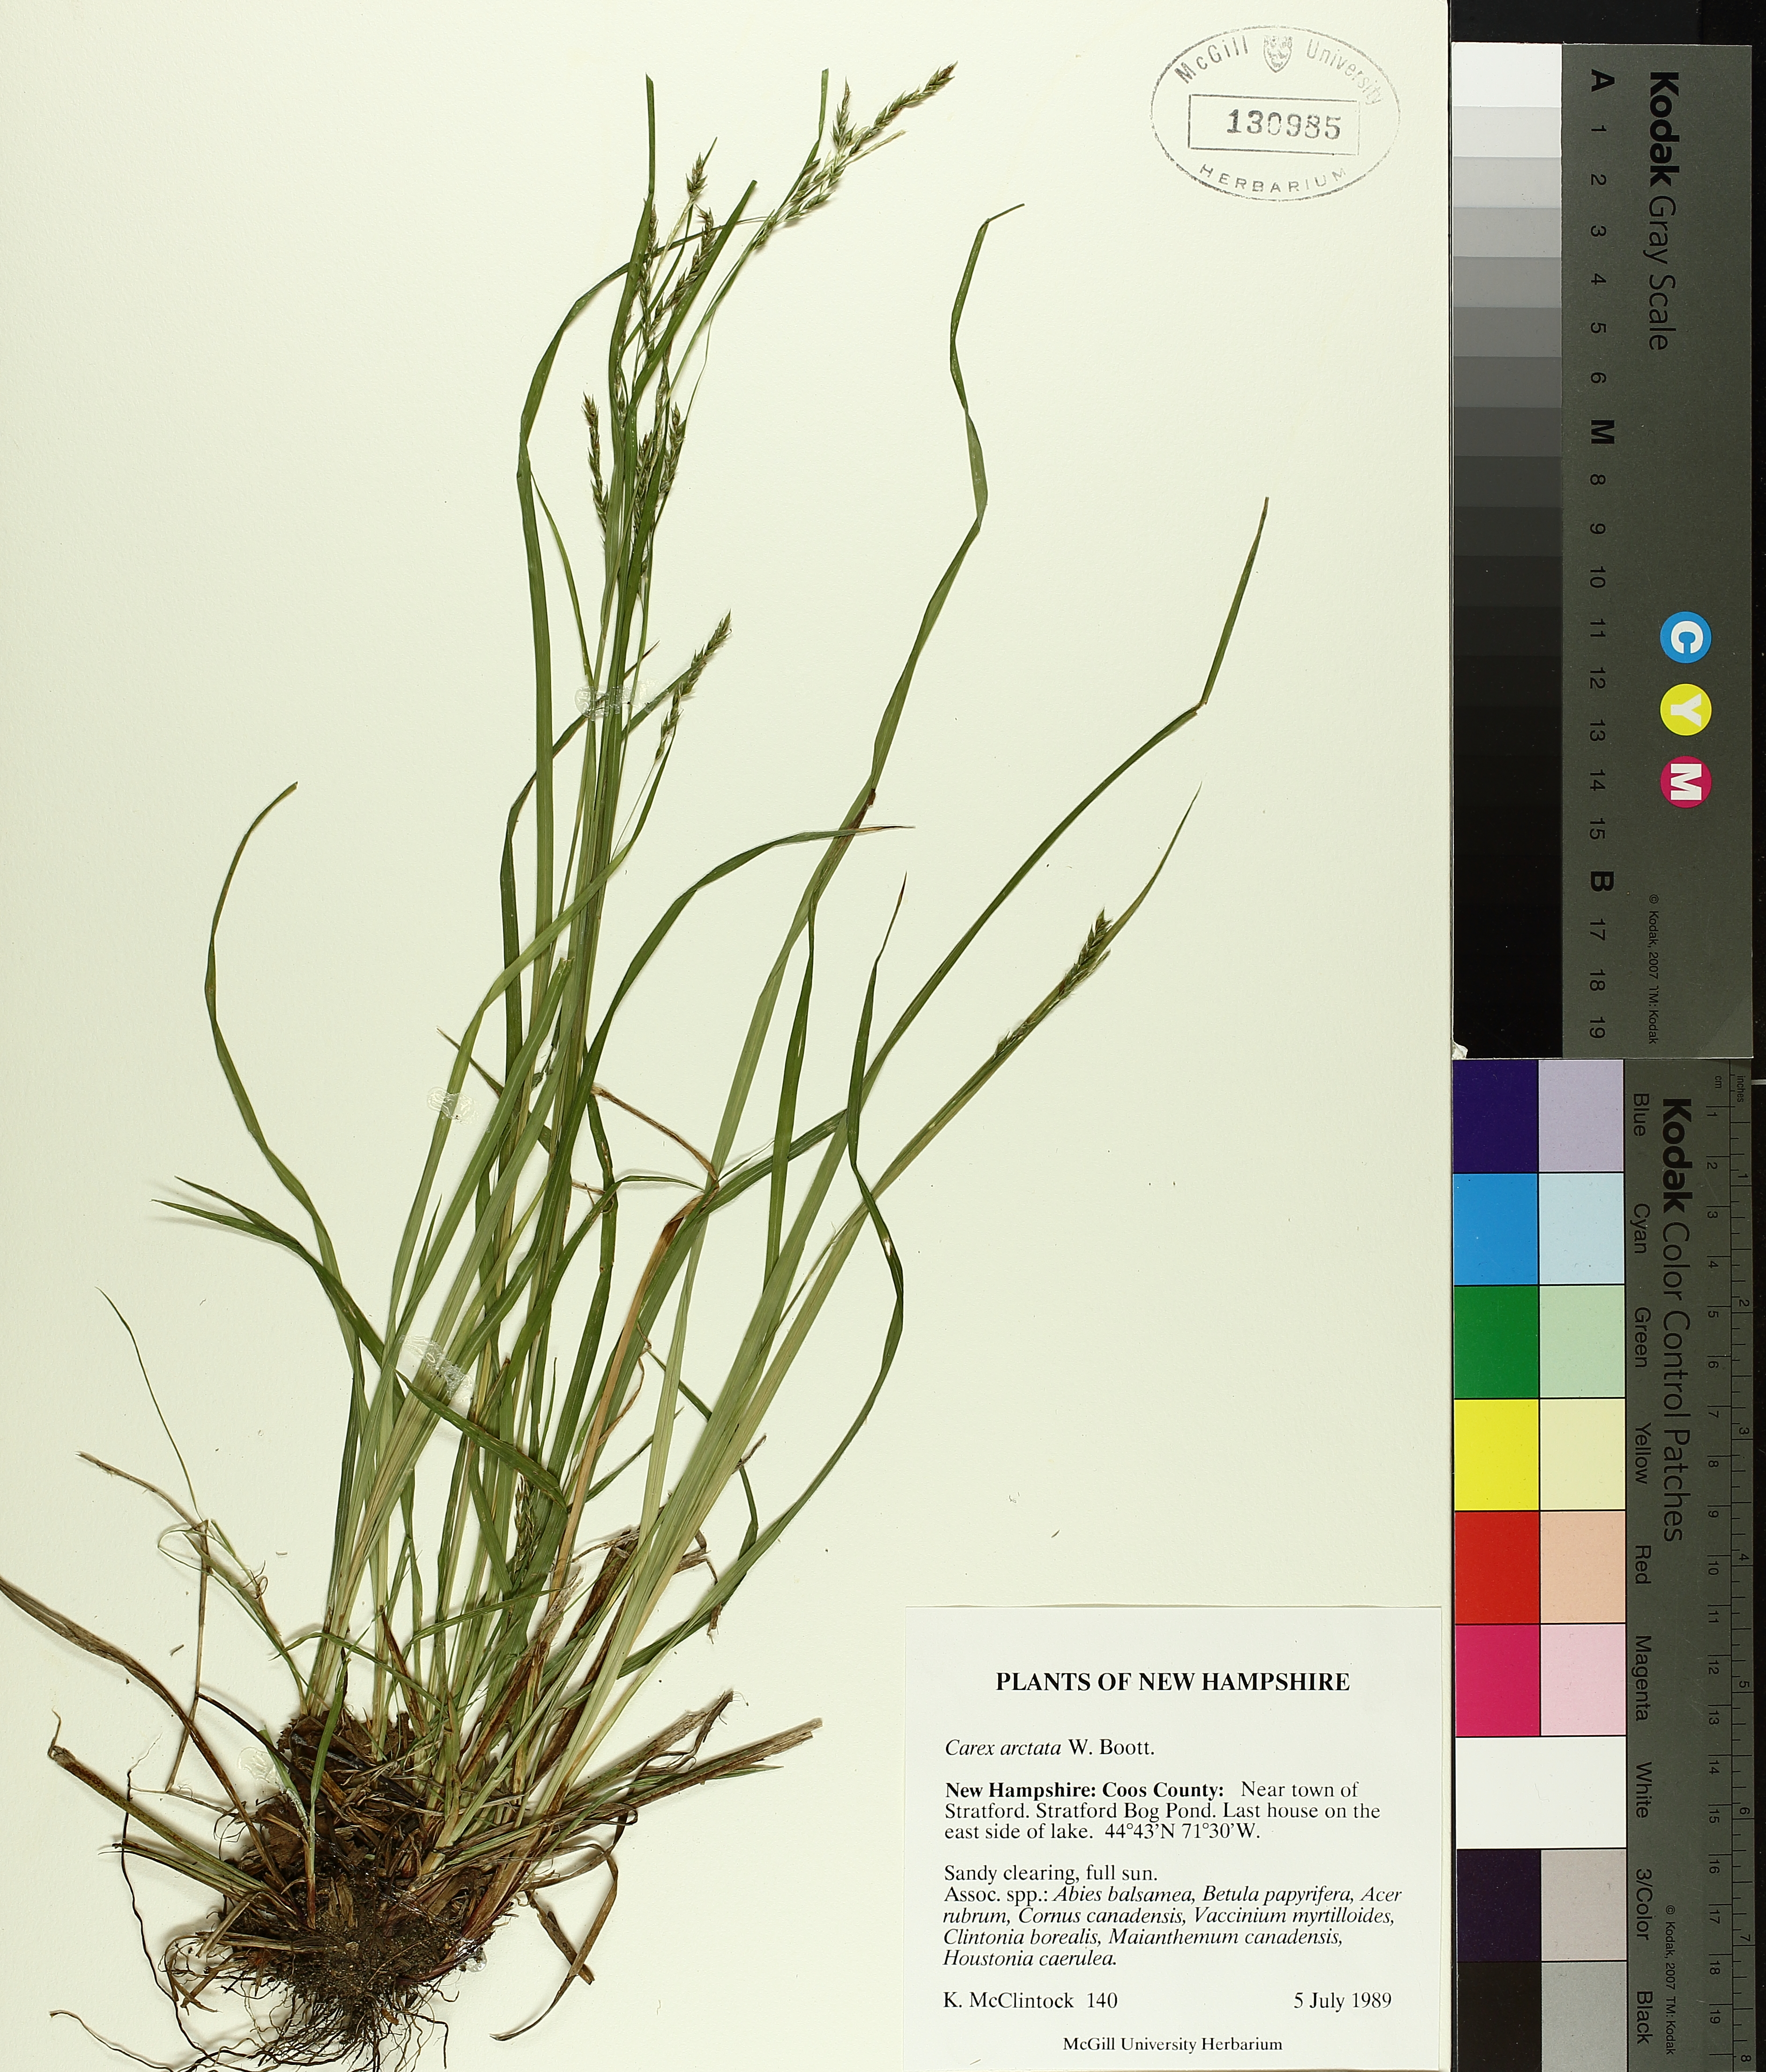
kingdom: Plantae
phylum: Tracheophyta
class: Liliopsida
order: Poales
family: Cyperaceae
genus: Carex
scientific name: Carex arctata
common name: Black sedge
